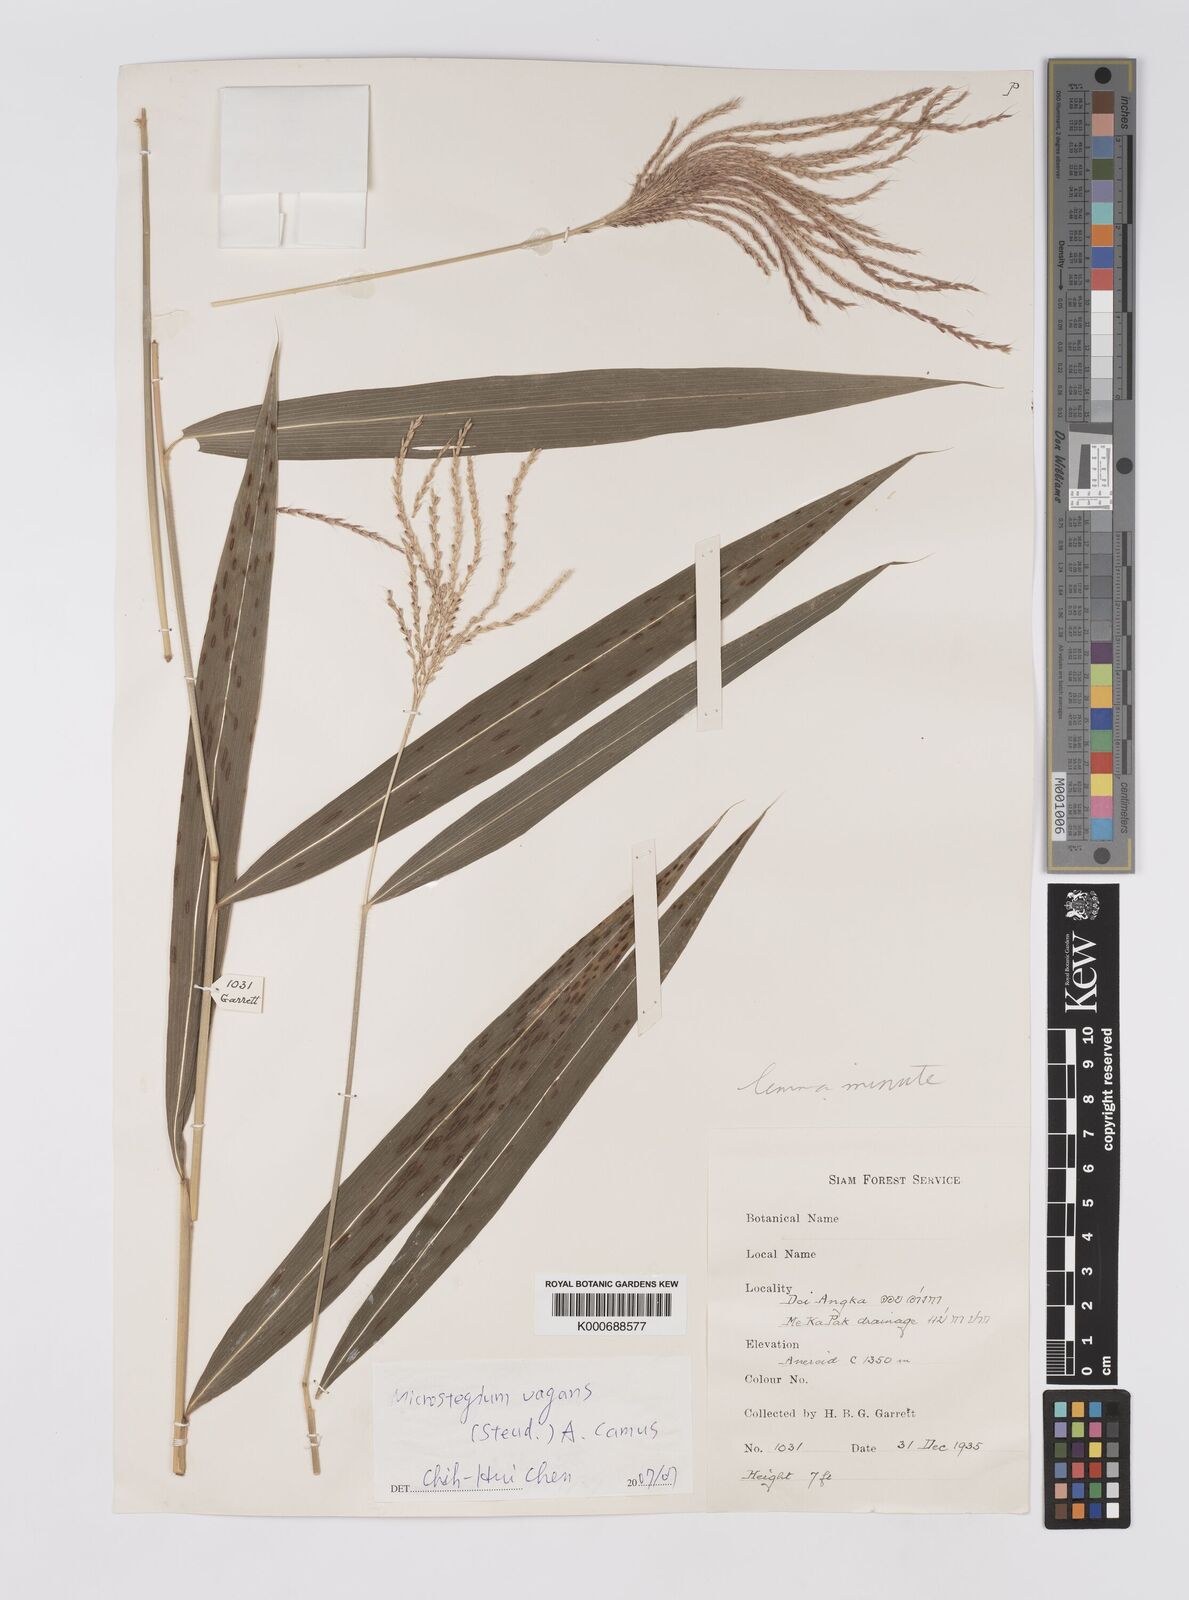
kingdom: Plantae
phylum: Tracheophyta
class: Liliopsida
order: Poales
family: Poaceae
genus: Microstegium
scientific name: Microstegium fasciculatum
